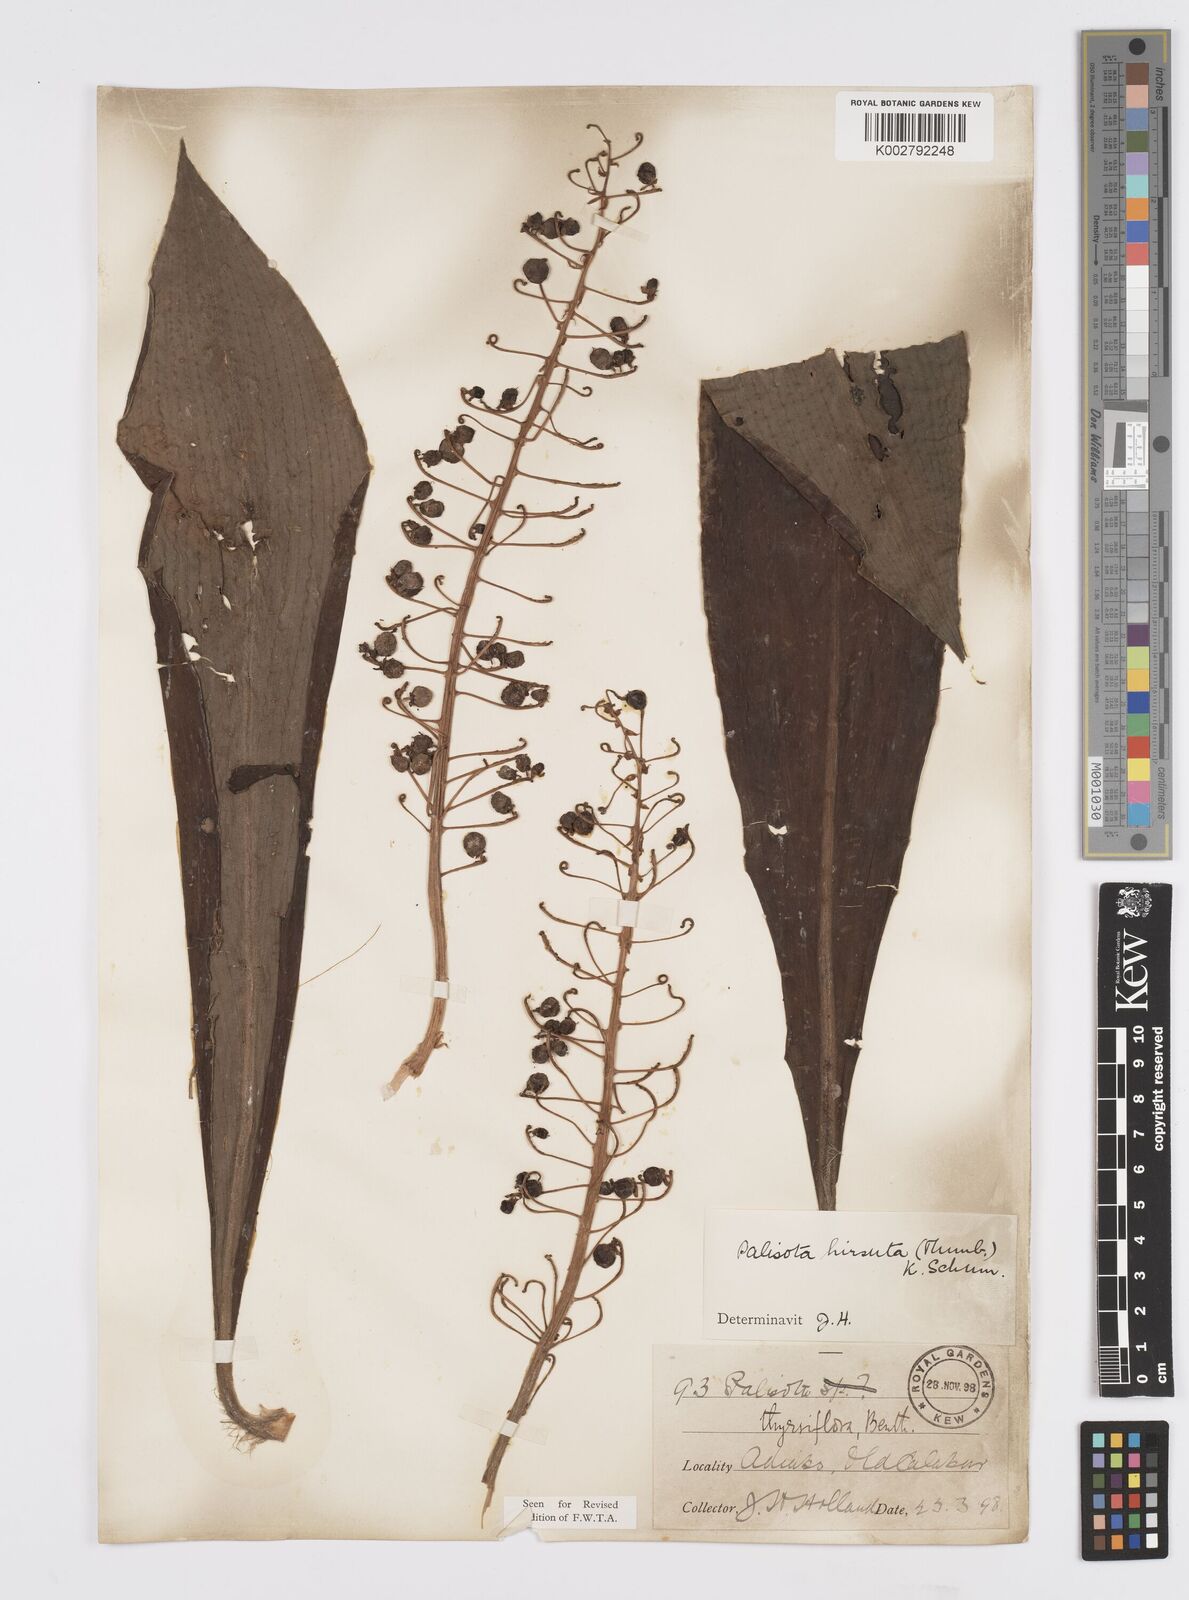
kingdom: Plantae
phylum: Tracheophyta
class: Liliopsida
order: Commelinales
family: Commelinaceae
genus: Palisota
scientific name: Palisota hirsuta
